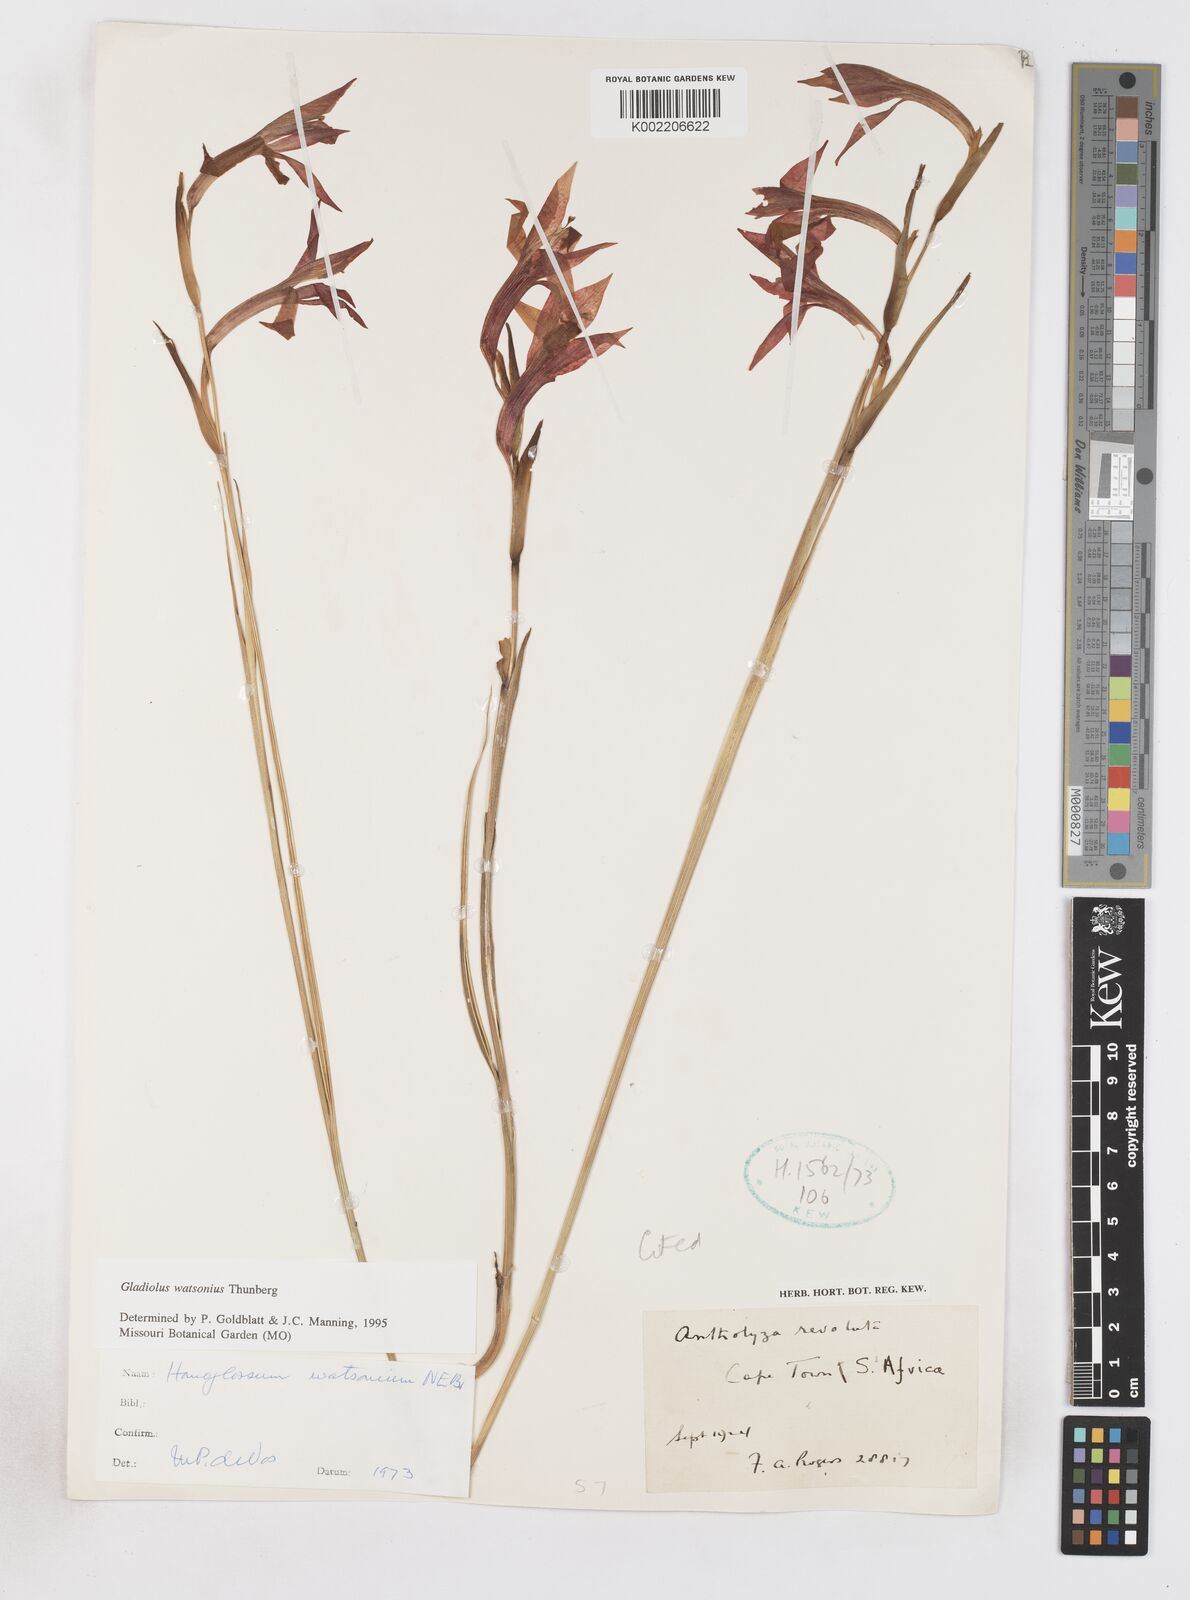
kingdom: Plantae
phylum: Tracheophyta
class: Liliopsida
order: Asparagales
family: Iridaceae
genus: Gladiolus
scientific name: Gladiolus watsonius
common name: Red afrikaner
